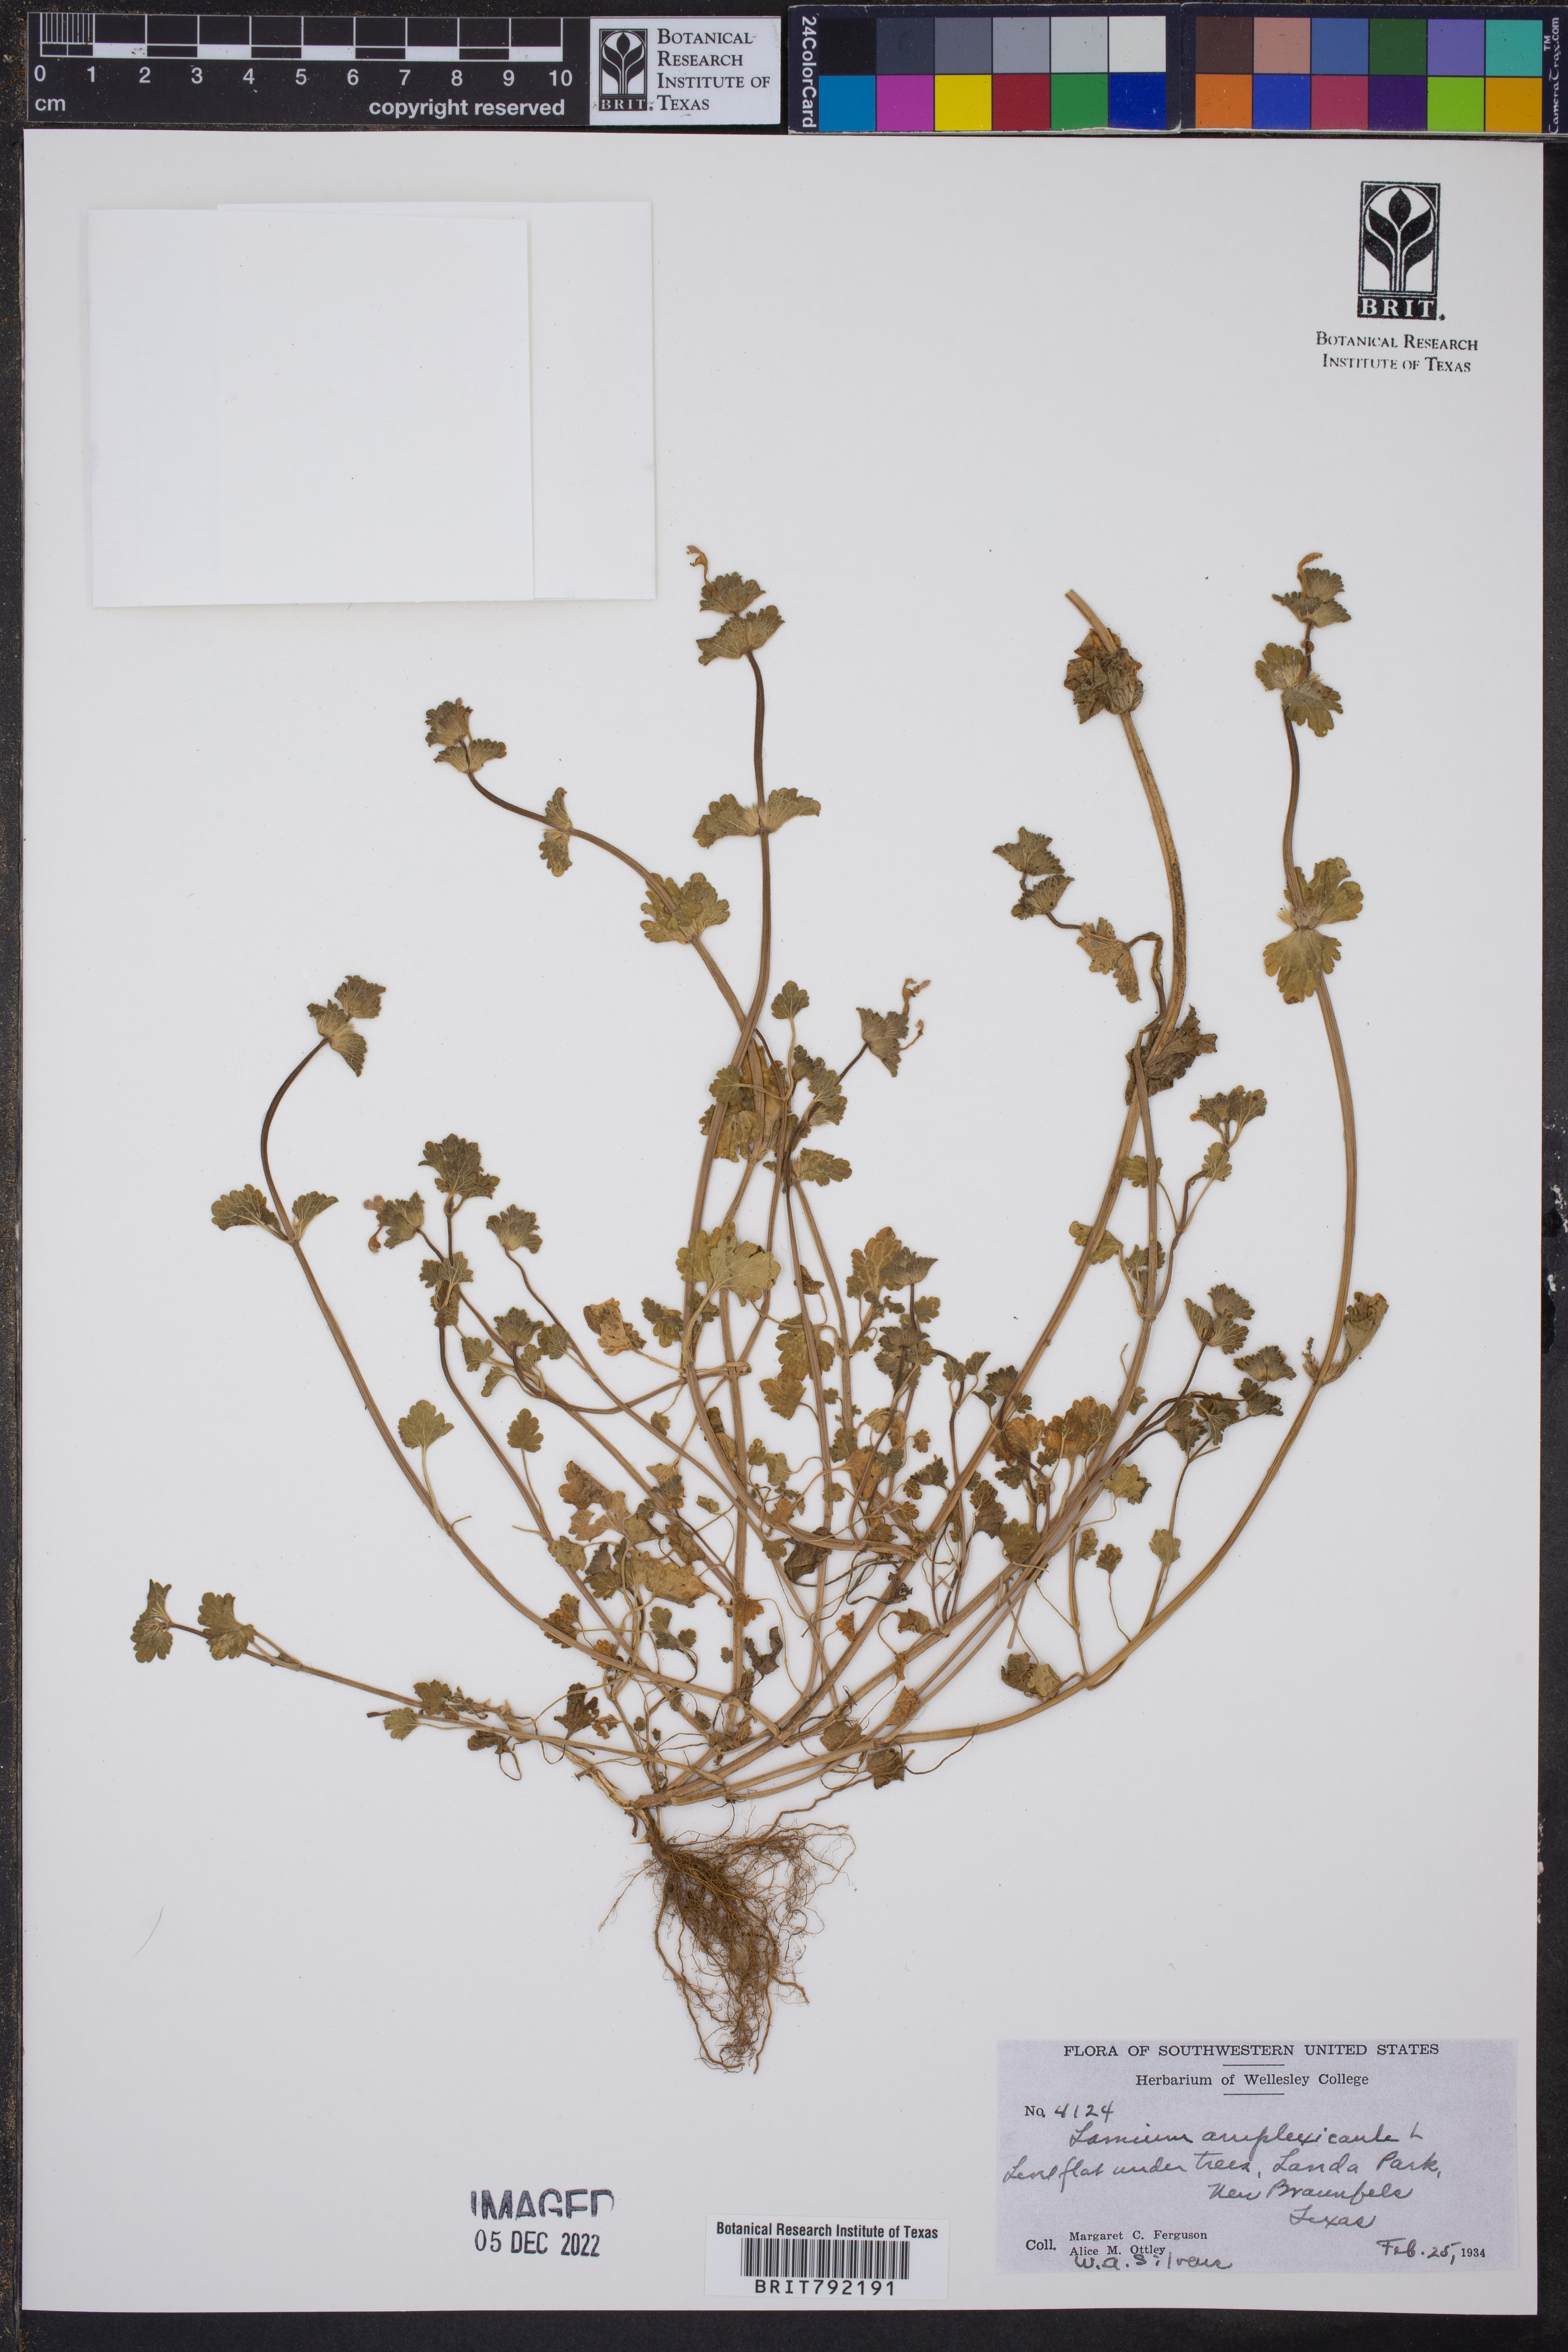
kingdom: Plantae
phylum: Tracheophyta
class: Magnoliopsida
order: Lamiales
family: Lamiaceae
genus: Lamium
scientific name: Lamium amplexicaule
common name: Henbit dead-nettle
